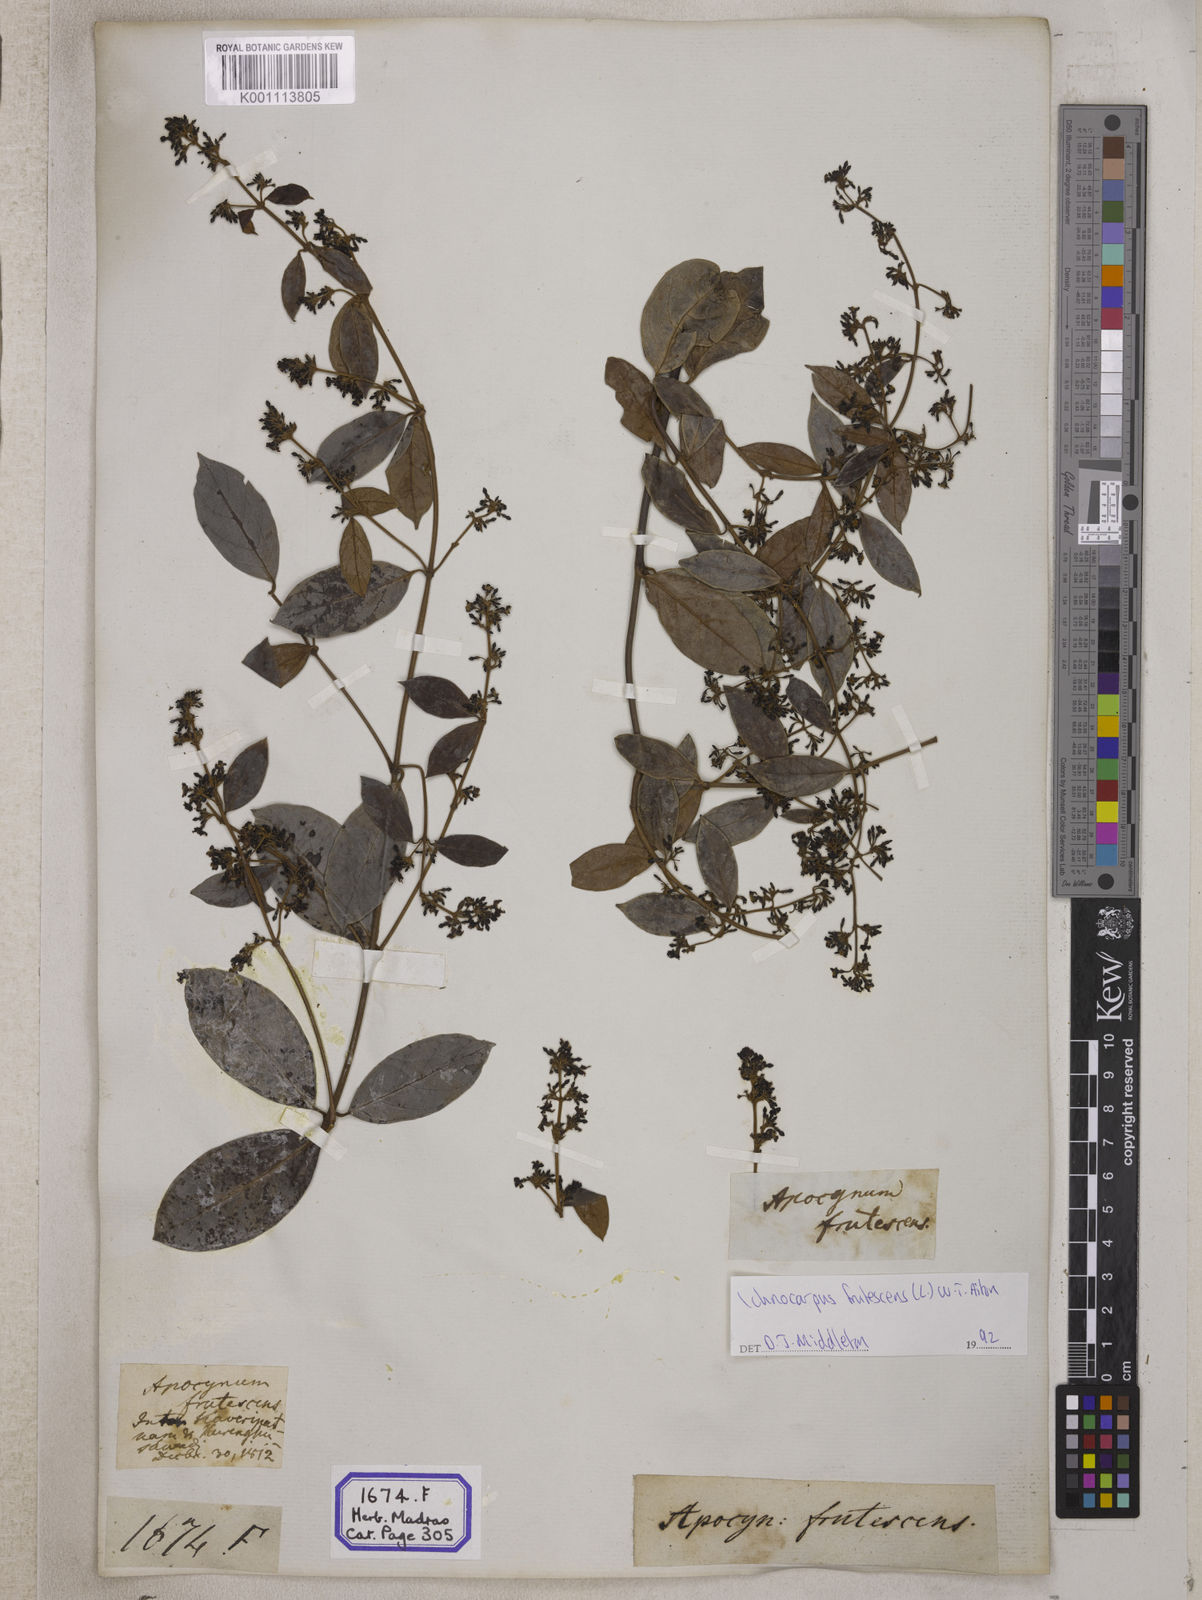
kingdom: Plantae
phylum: Tracheophyta
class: Magnoliopsida
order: Gentianales
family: Apocynaceae
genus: Ichnocarpus
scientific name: Ichnocarpus
